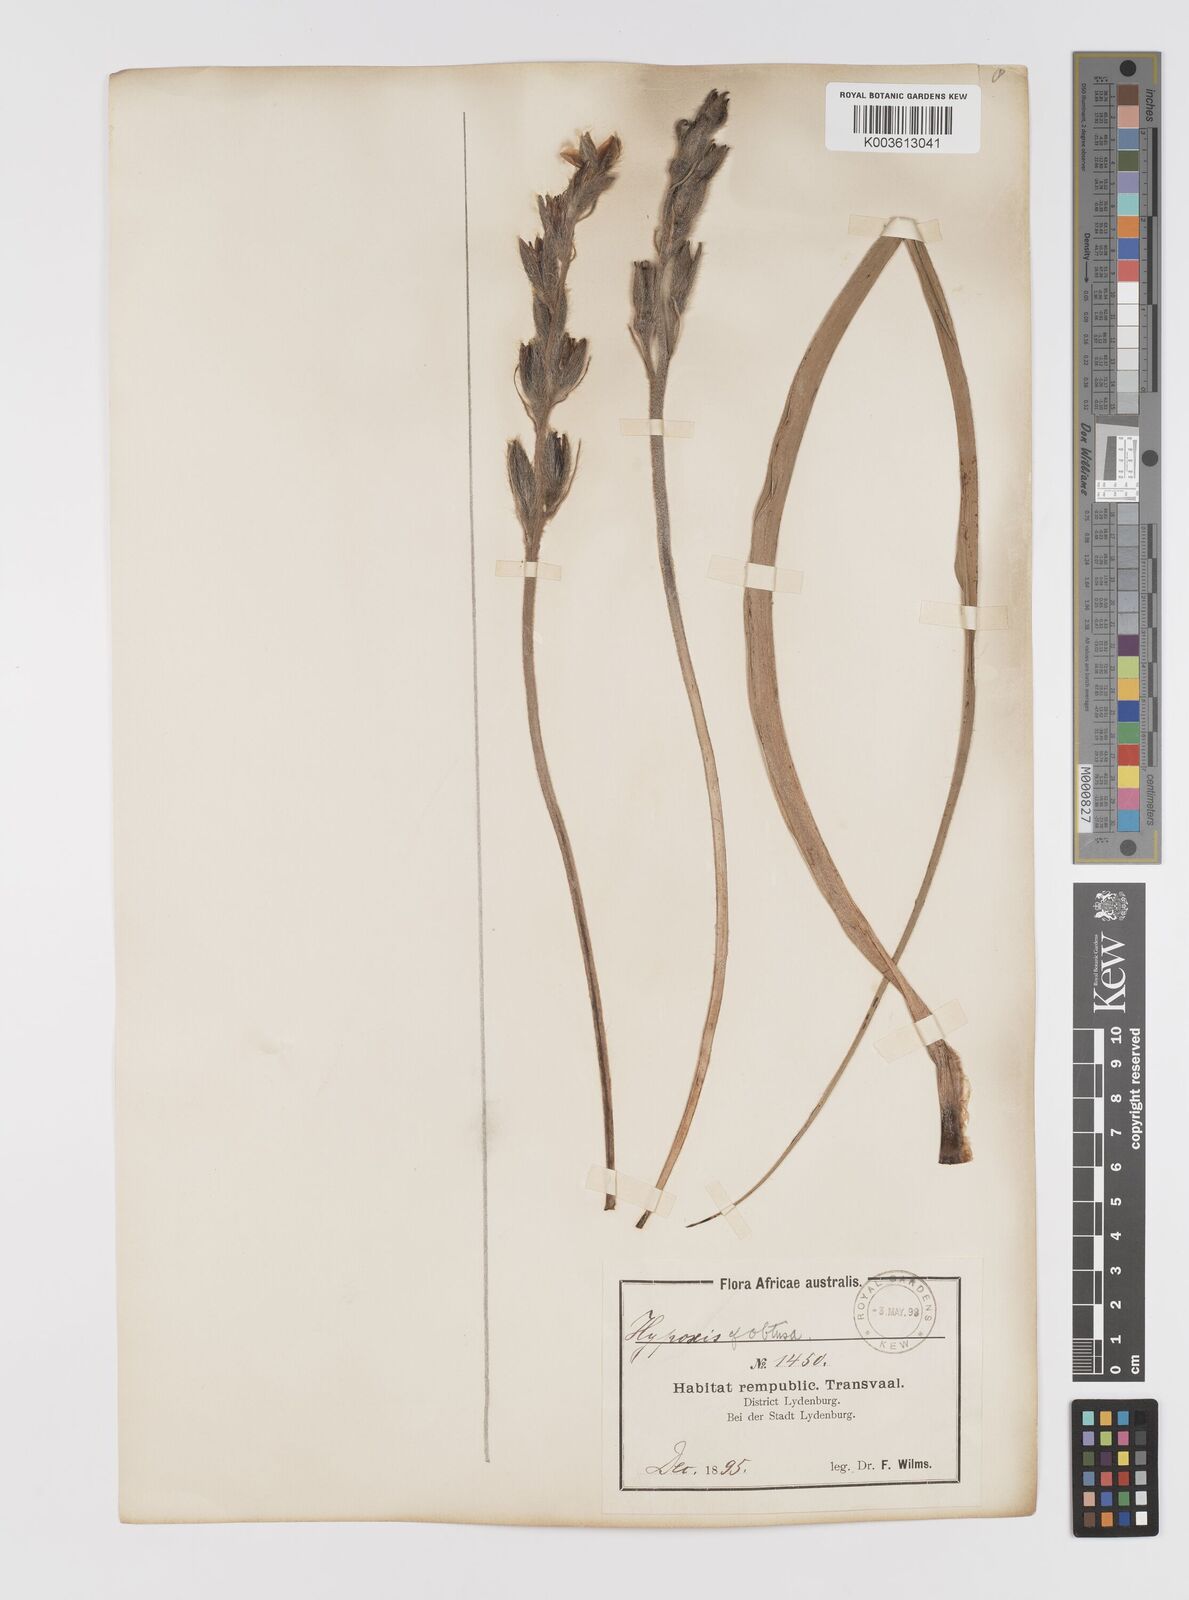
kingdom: Plantae
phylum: Tracheophyta
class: Liliopsida
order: Asparagales
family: Hypoxidaceae
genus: Hypoxis
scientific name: Hypoxis obtusa
